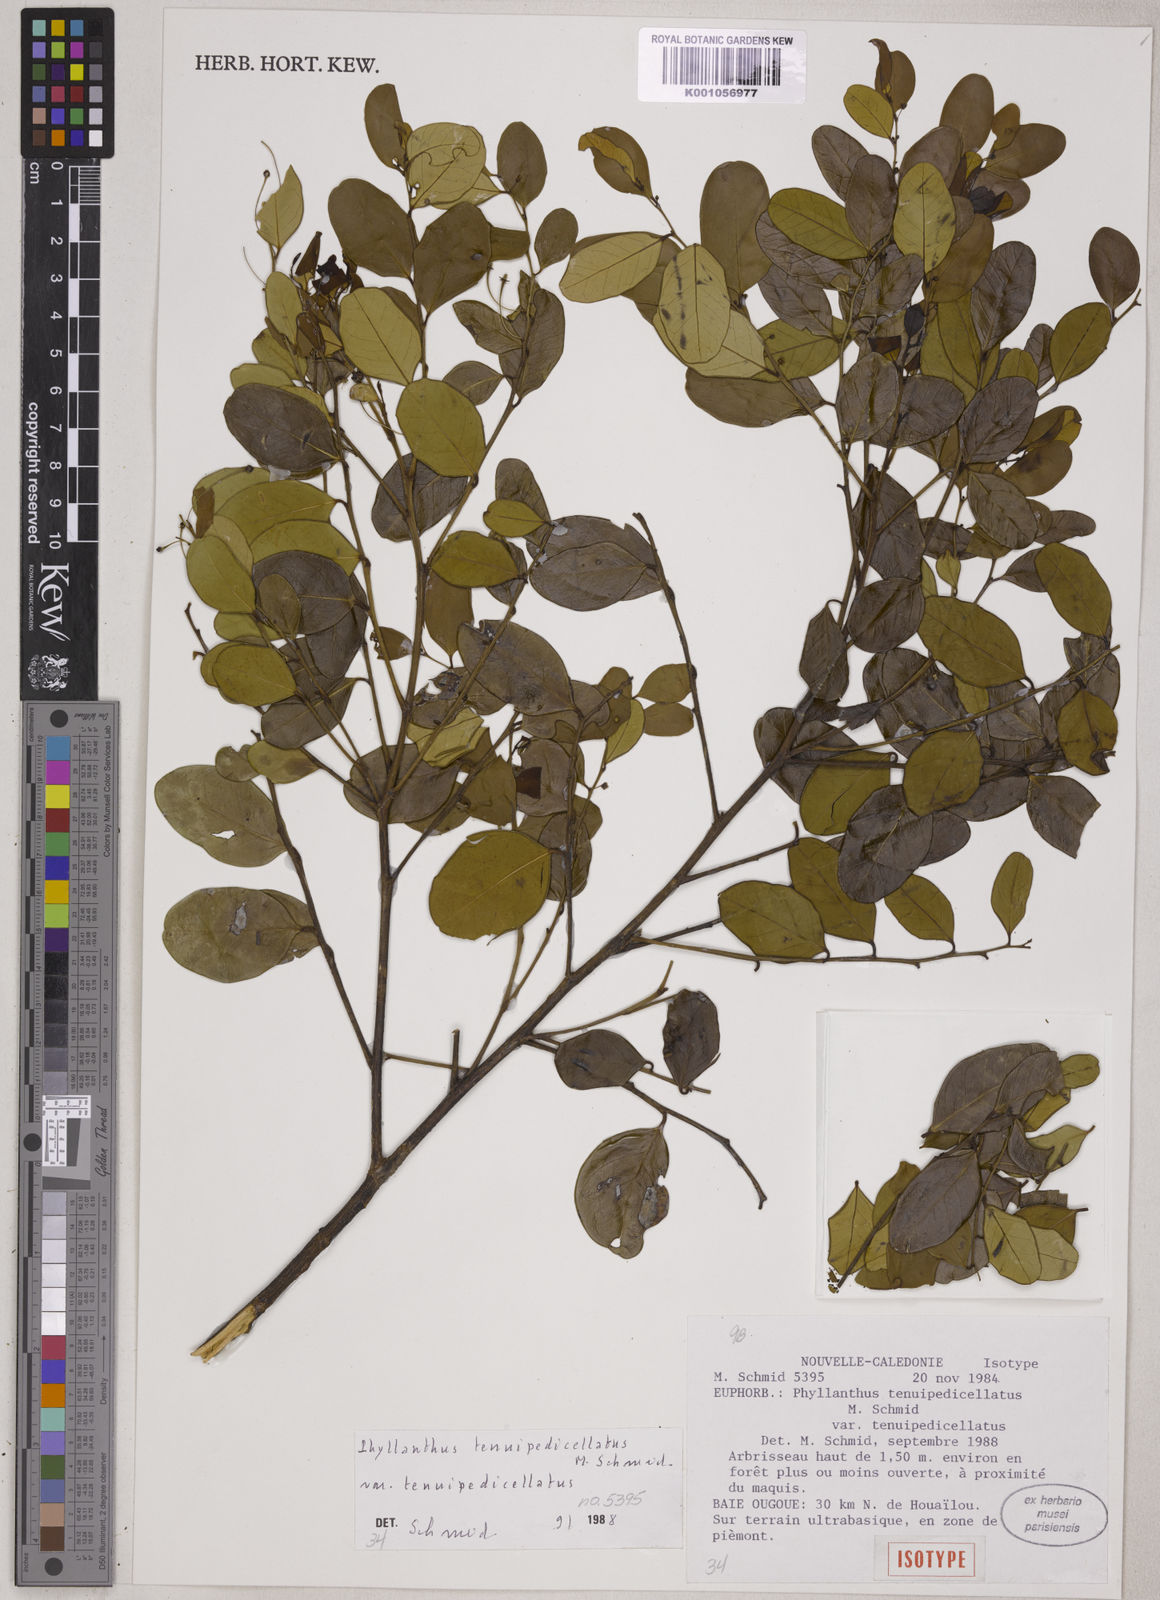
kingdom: Plantae
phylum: Tracheophyta
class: Magnoliopsida
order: Malpighiales
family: Phyllanthaceae
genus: Phyllanthus
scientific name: Phyllanthus tenuipedicellatus
